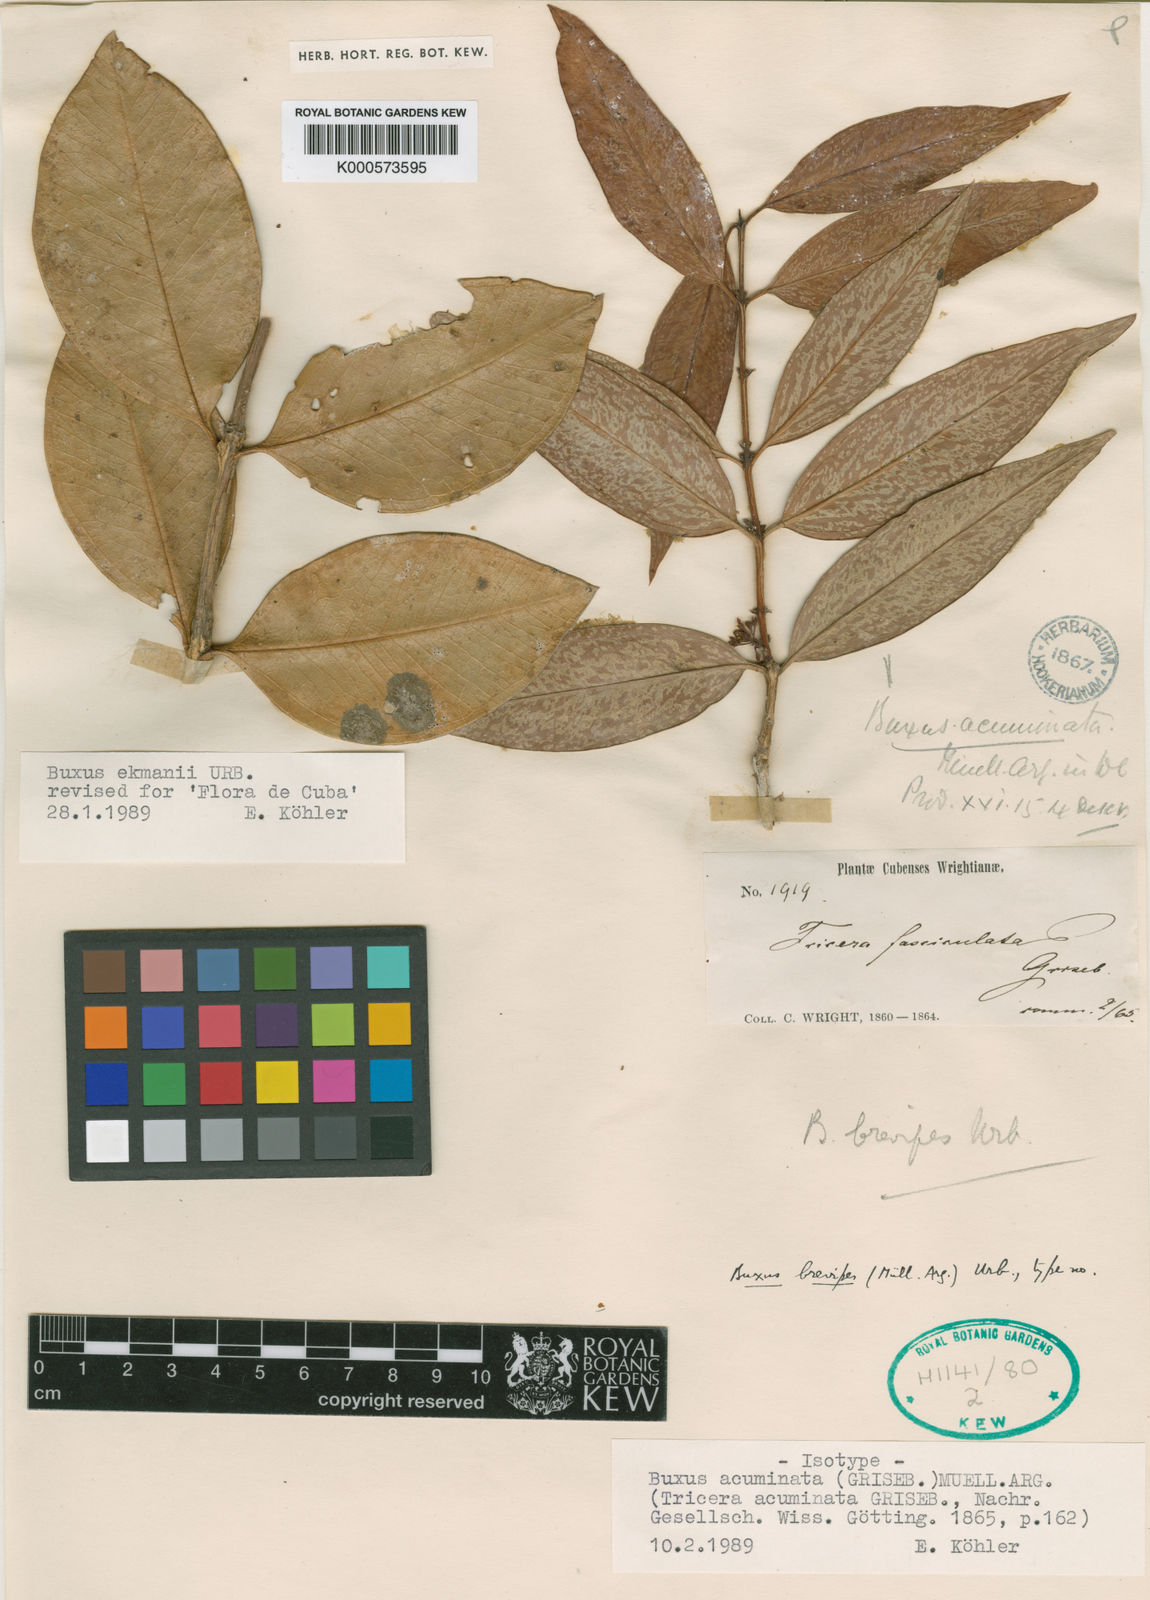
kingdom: Plantae
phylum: Tracheophyta
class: Magnoliopsida
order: Buxales
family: Buxaceae
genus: Buxus
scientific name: Buxus
